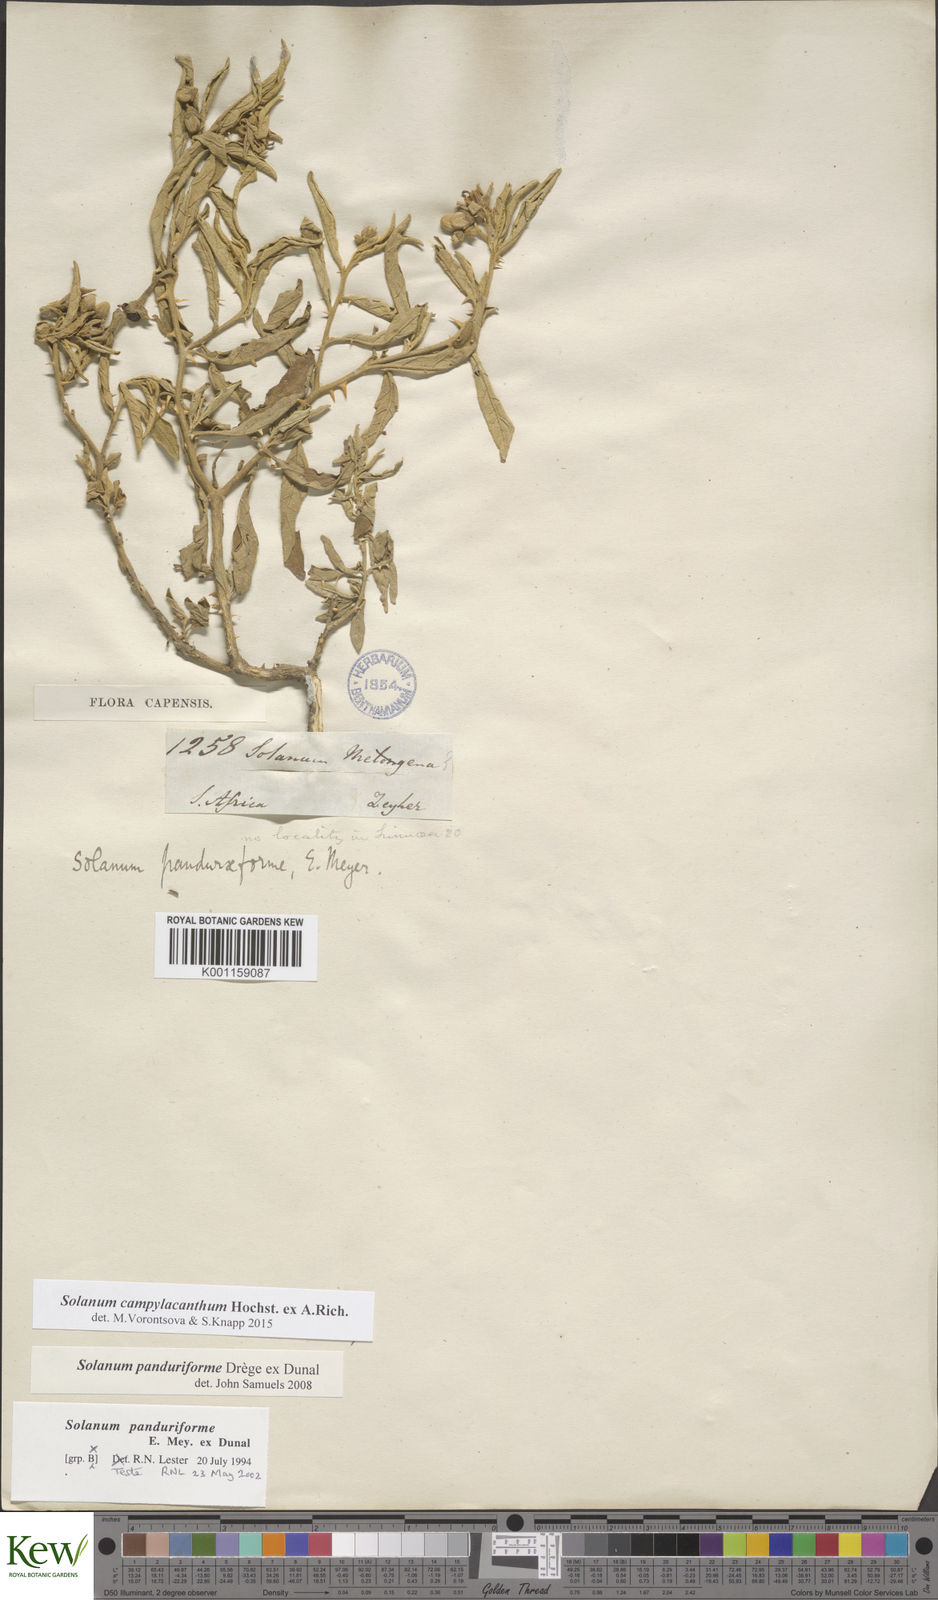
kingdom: Plantae
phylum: Tracheophyta
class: Magnoliopsida
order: Solanales
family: Solanaceae
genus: Solanum
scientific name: Solanum campylacanthum
